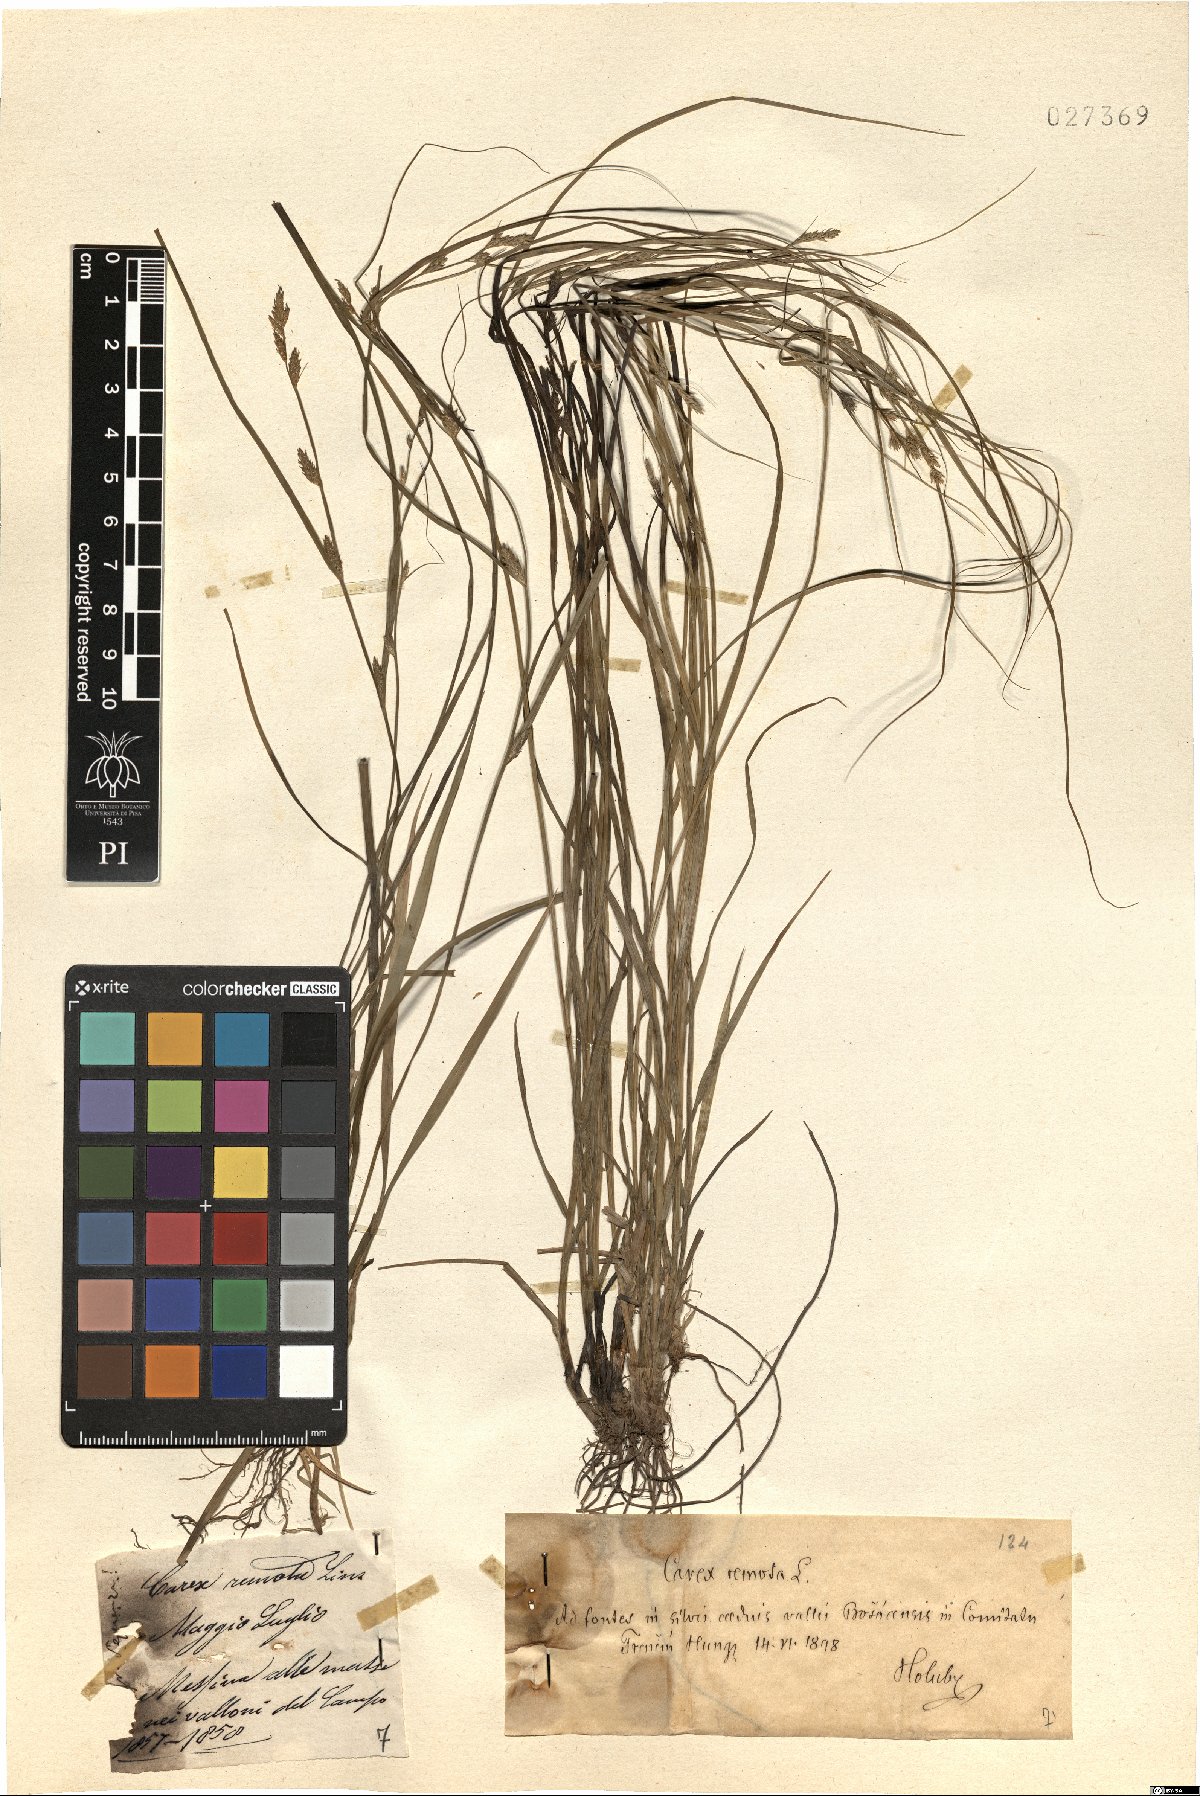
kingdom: Plantae
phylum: Tracheophyta
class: Liliopsida
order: Poales
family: Cyperaceae
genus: Carex
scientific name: Carex remota
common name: Remote sedge
